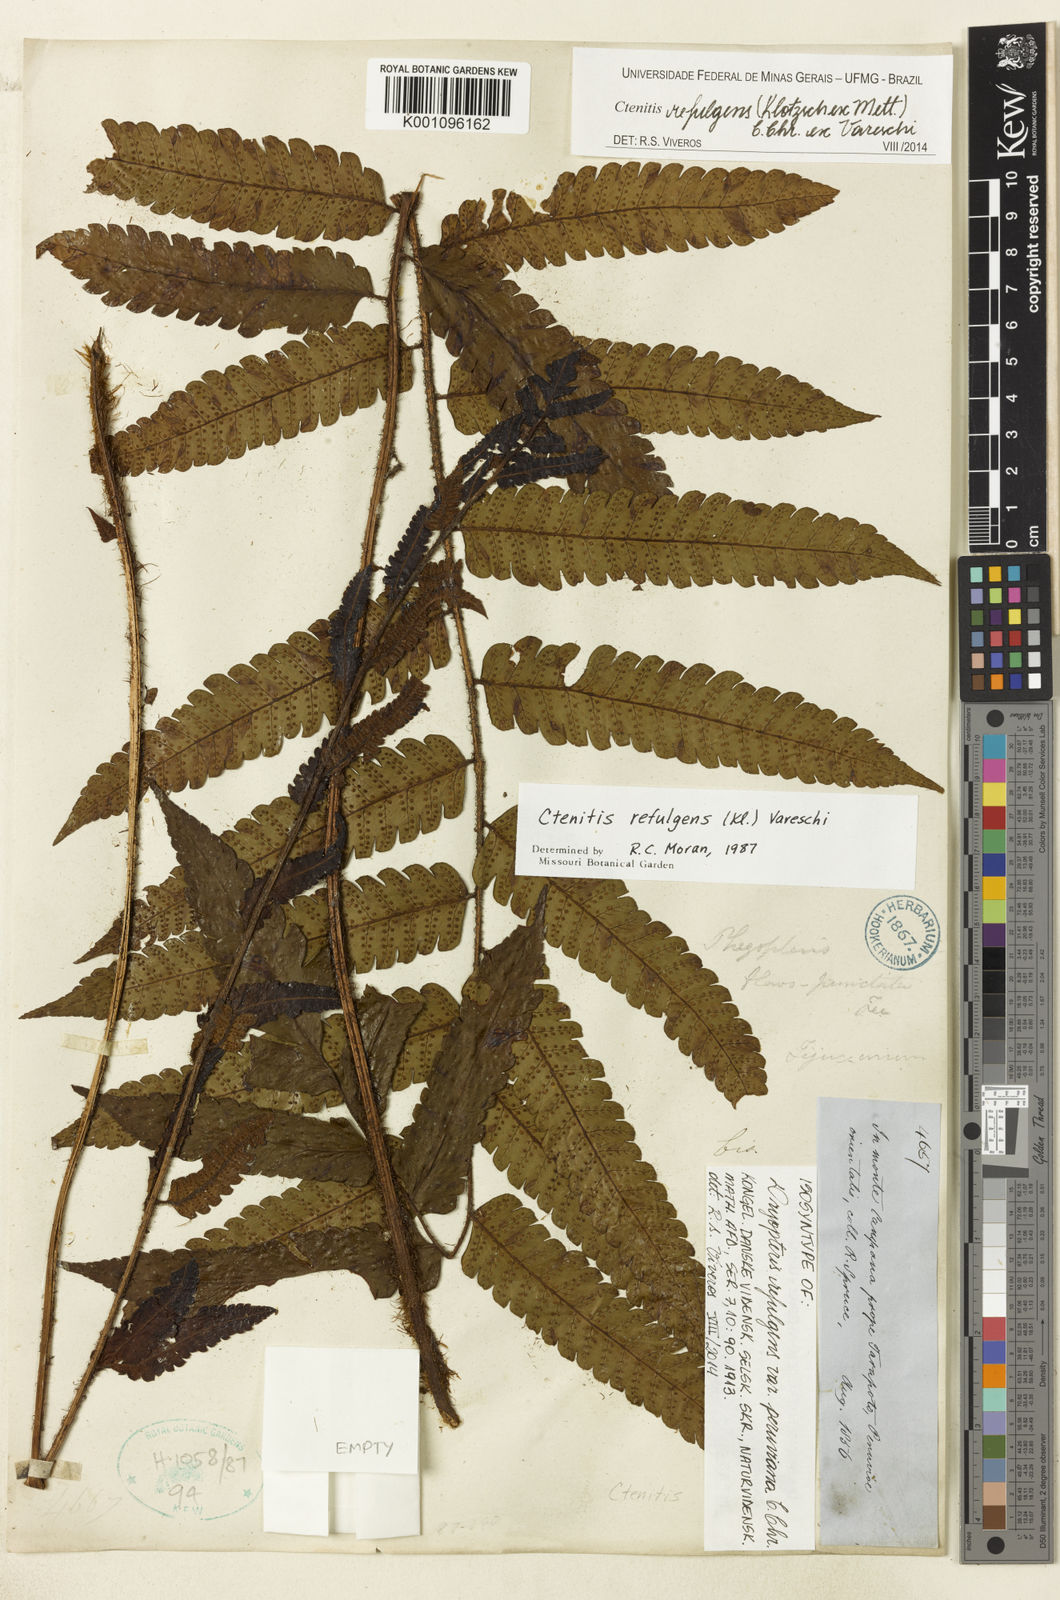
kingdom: Plantae
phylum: Tracheophyta
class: Polypodiopsida
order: Polypodiales
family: Dryopteridaceae
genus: Ctenitis
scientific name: Ctenitis refulgens
